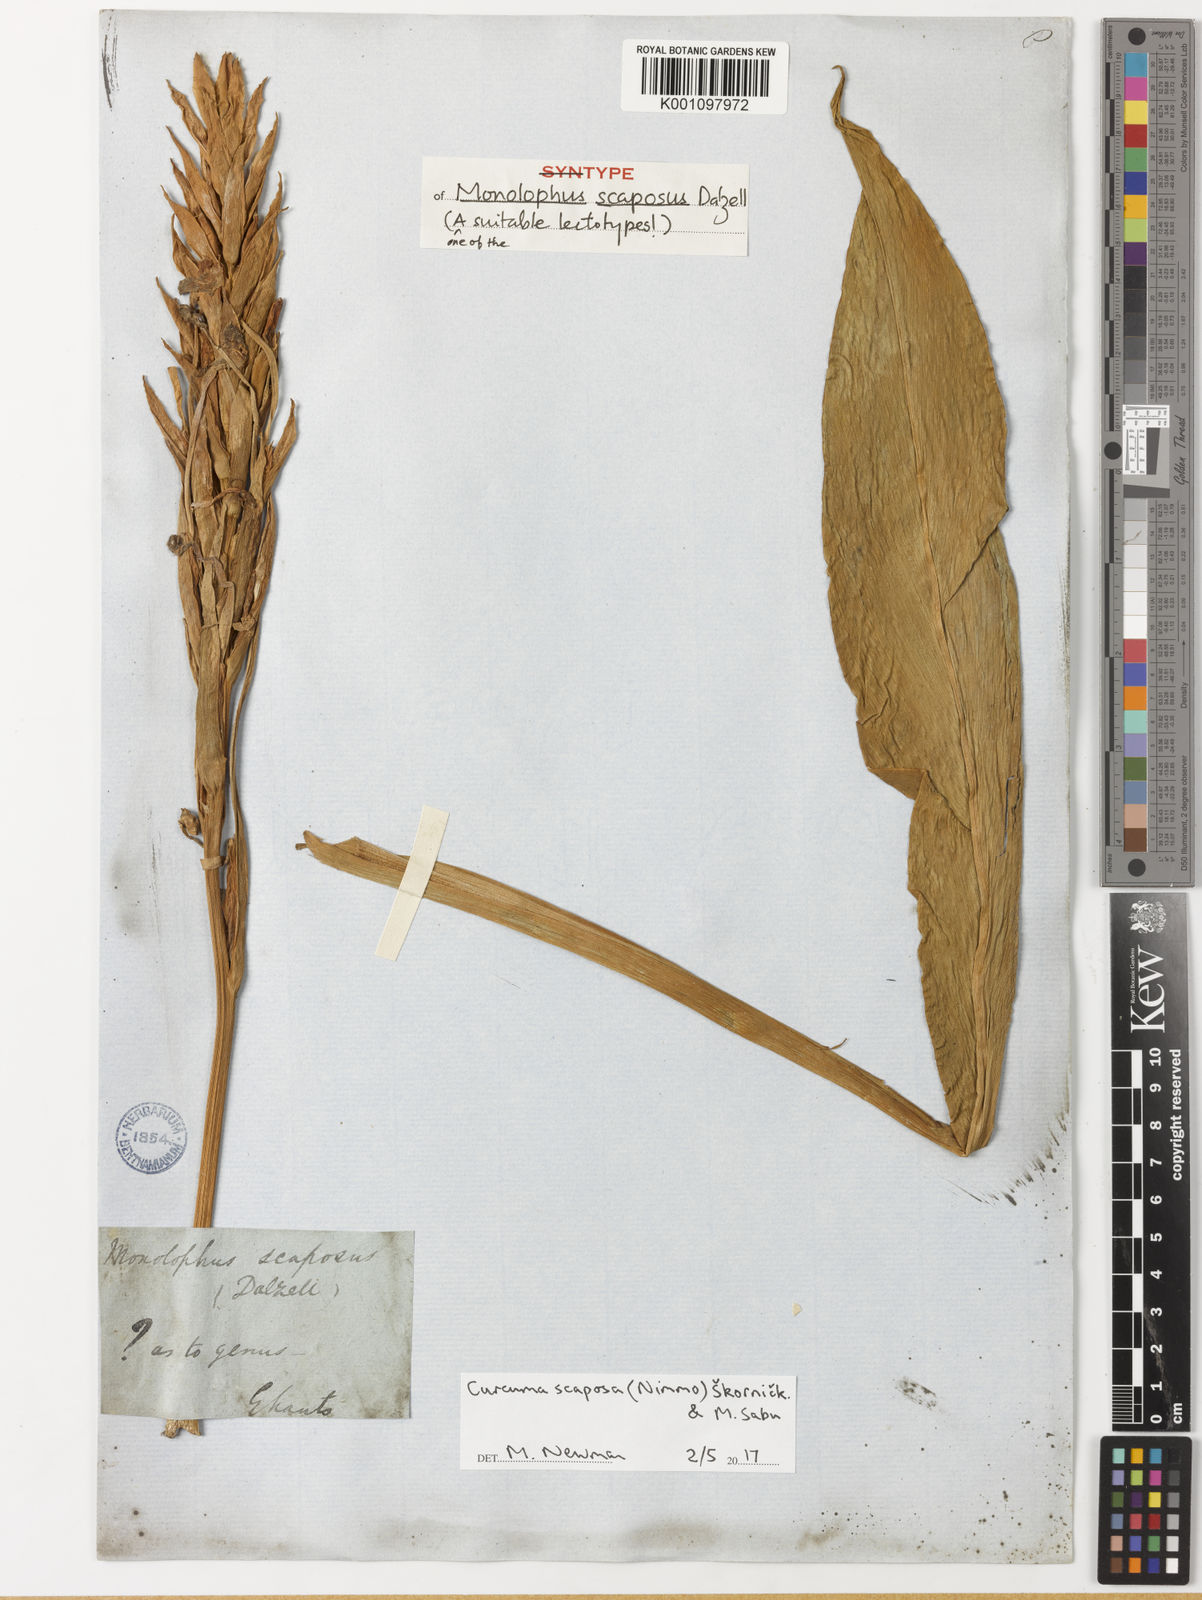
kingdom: Plantae
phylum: Tracheophyta
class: Liliopsida
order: Zingiberales
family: Zingiberaceae
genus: Curcuma
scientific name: Curcuma scaposa
